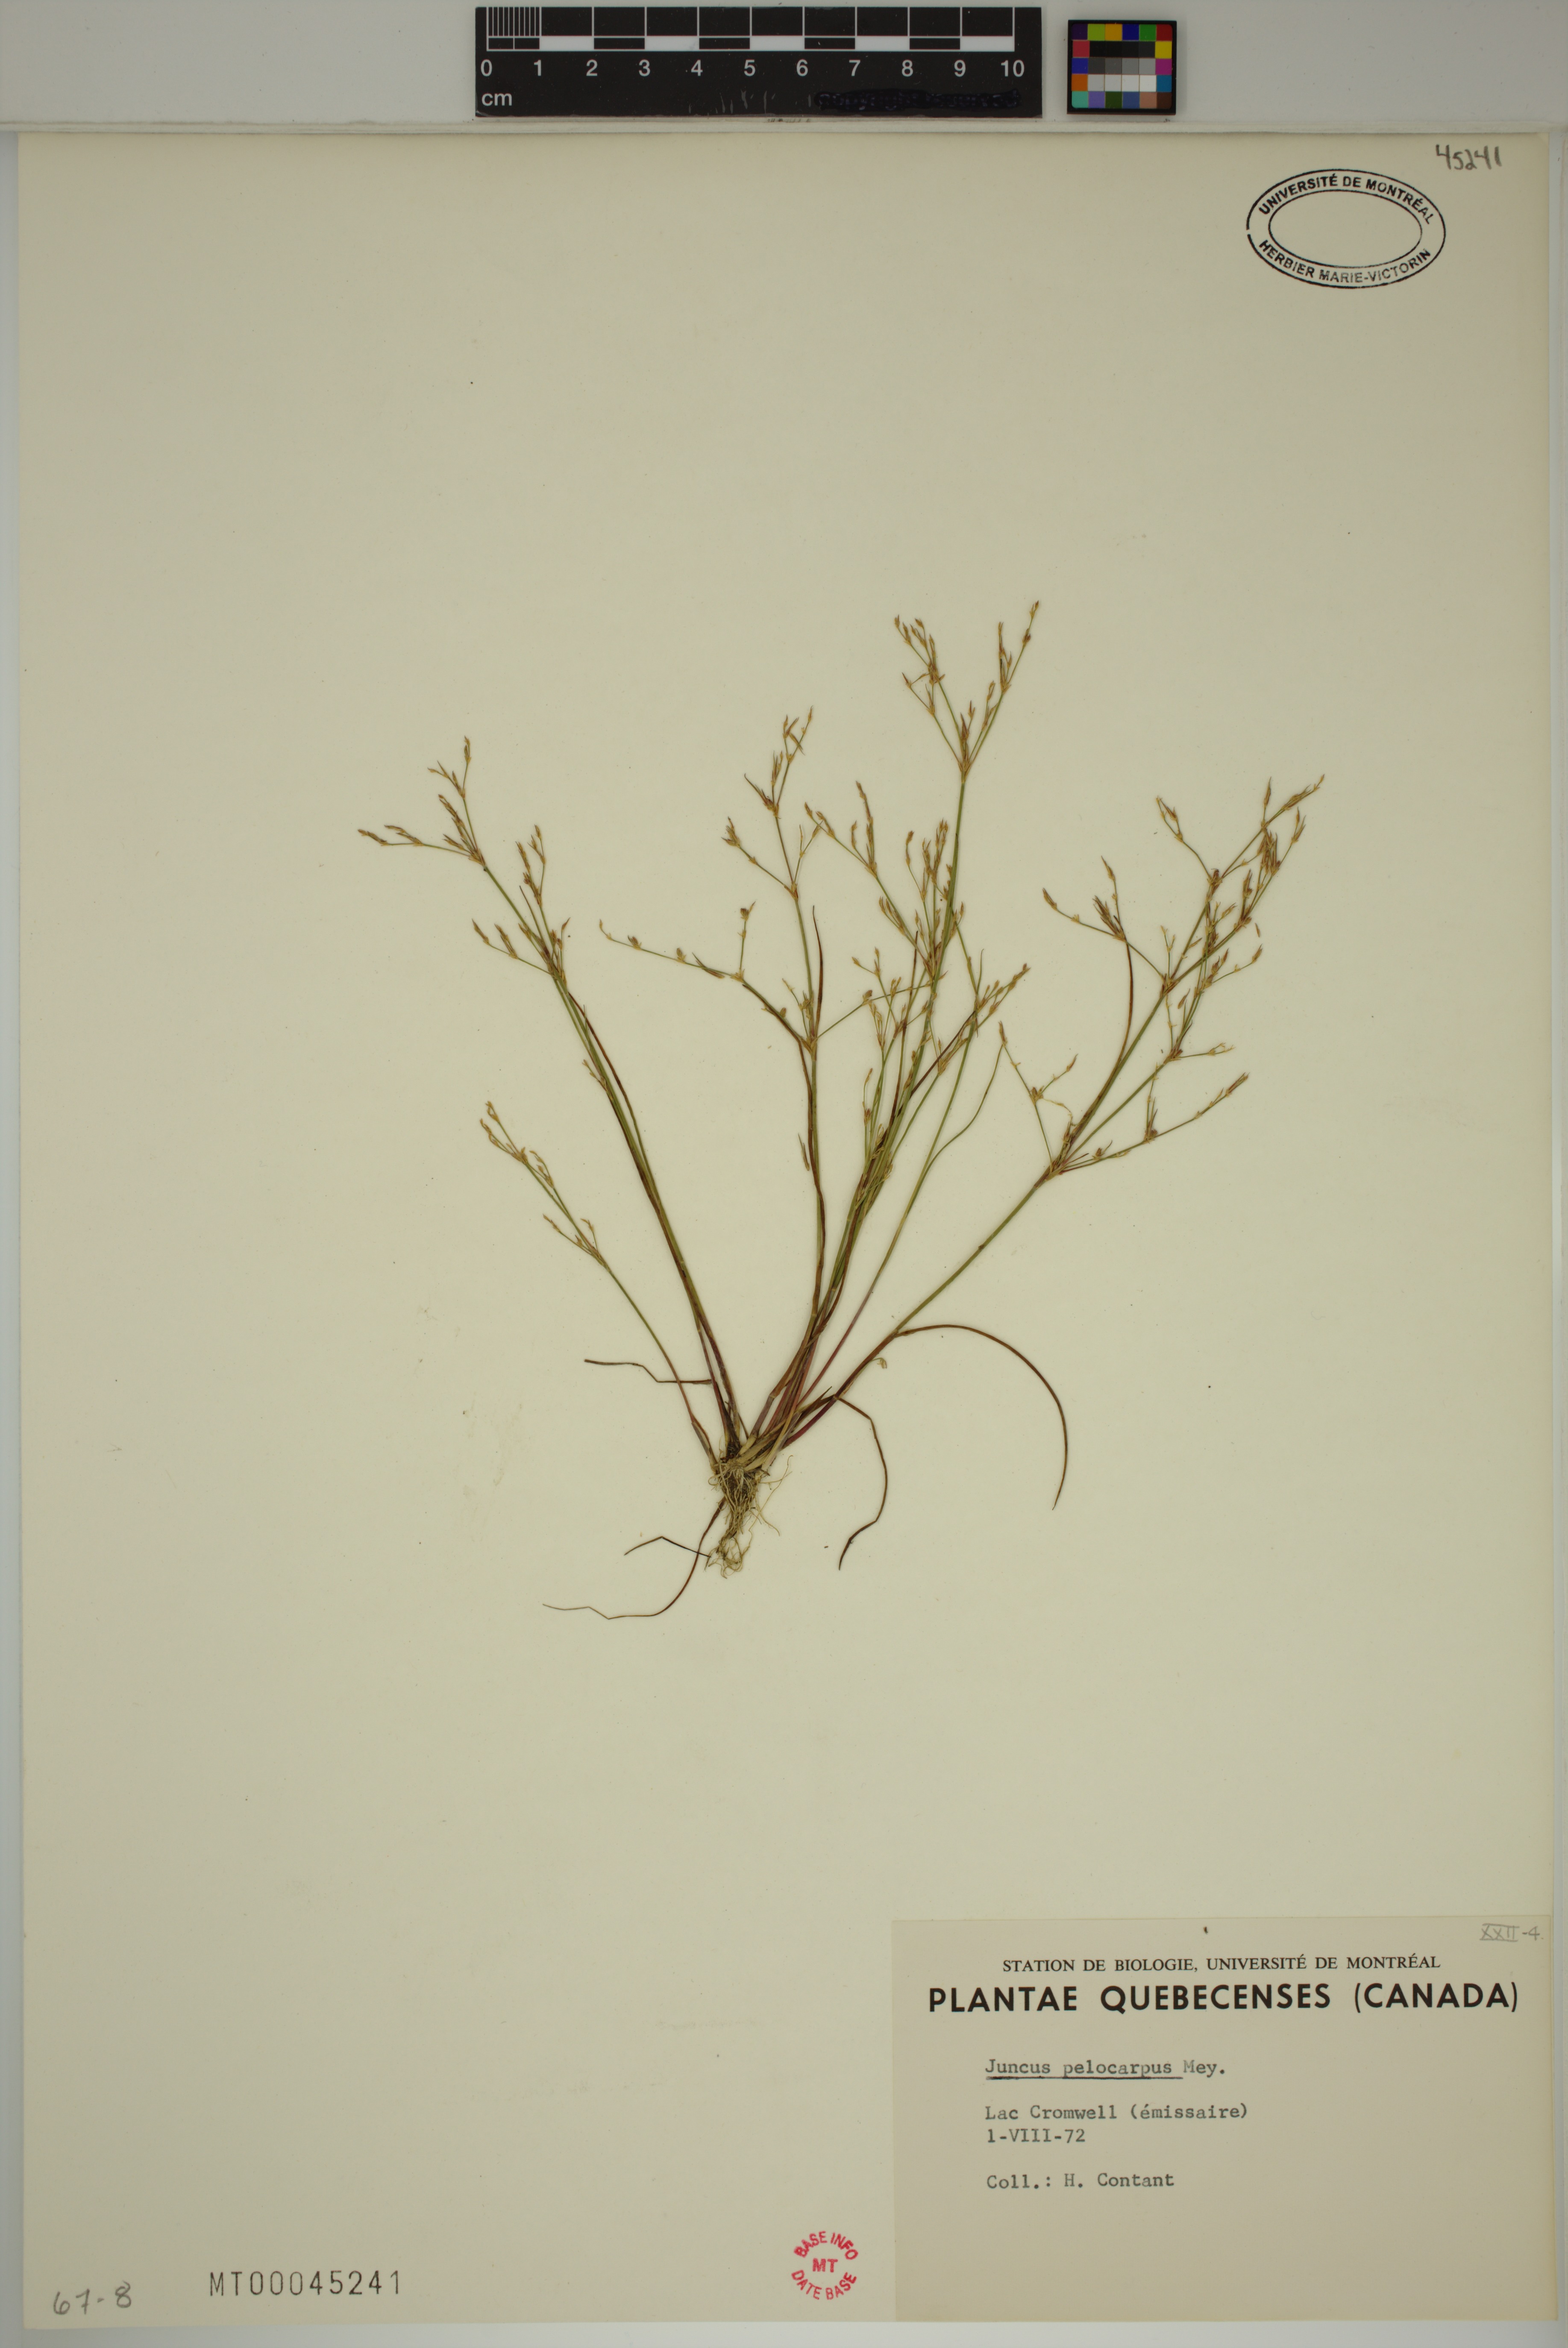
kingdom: Plantae
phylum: Tracheophyta
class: Liliopsida
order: Poales
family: Juncaceae
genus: Juncus
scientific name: Juncus pelocarpus
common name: Brown-fruited rush
